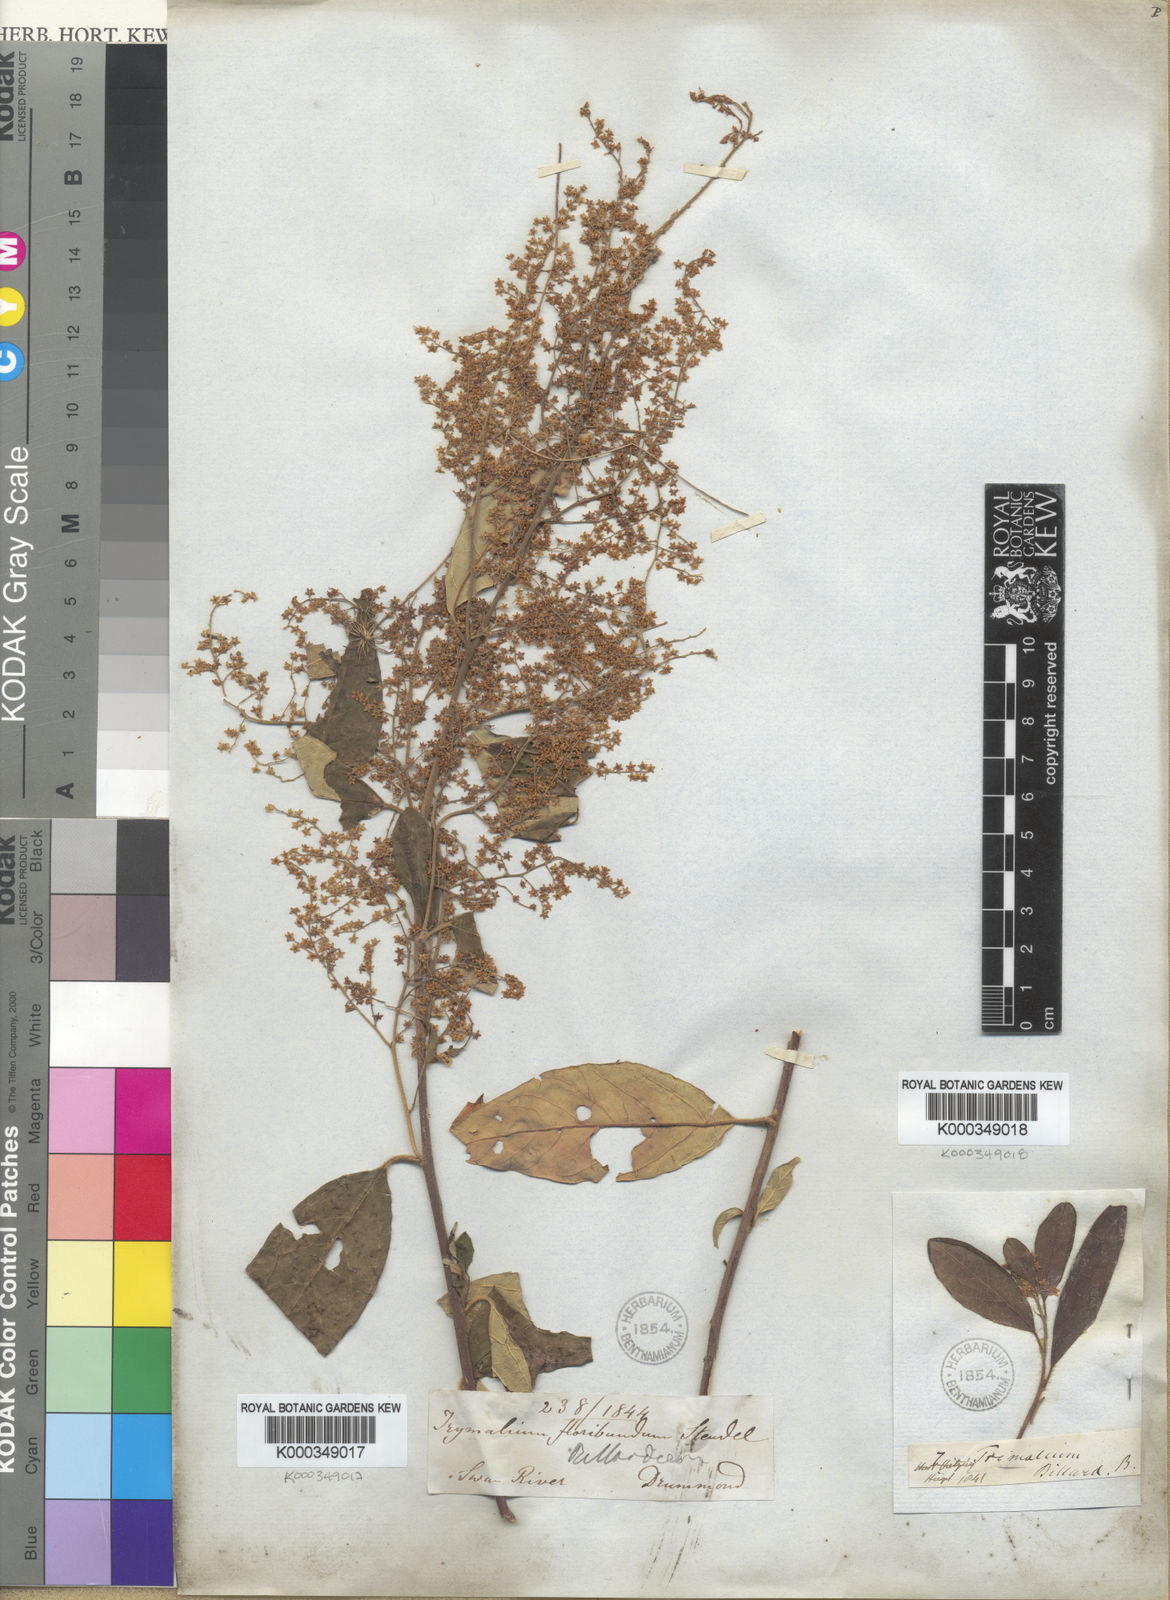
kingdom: Plantae
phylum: Tracheophyta
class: Magnoliopsida
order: Rosales
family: Rhamnaceae
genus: Trymalium
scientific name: Trymalium odoratissimum
